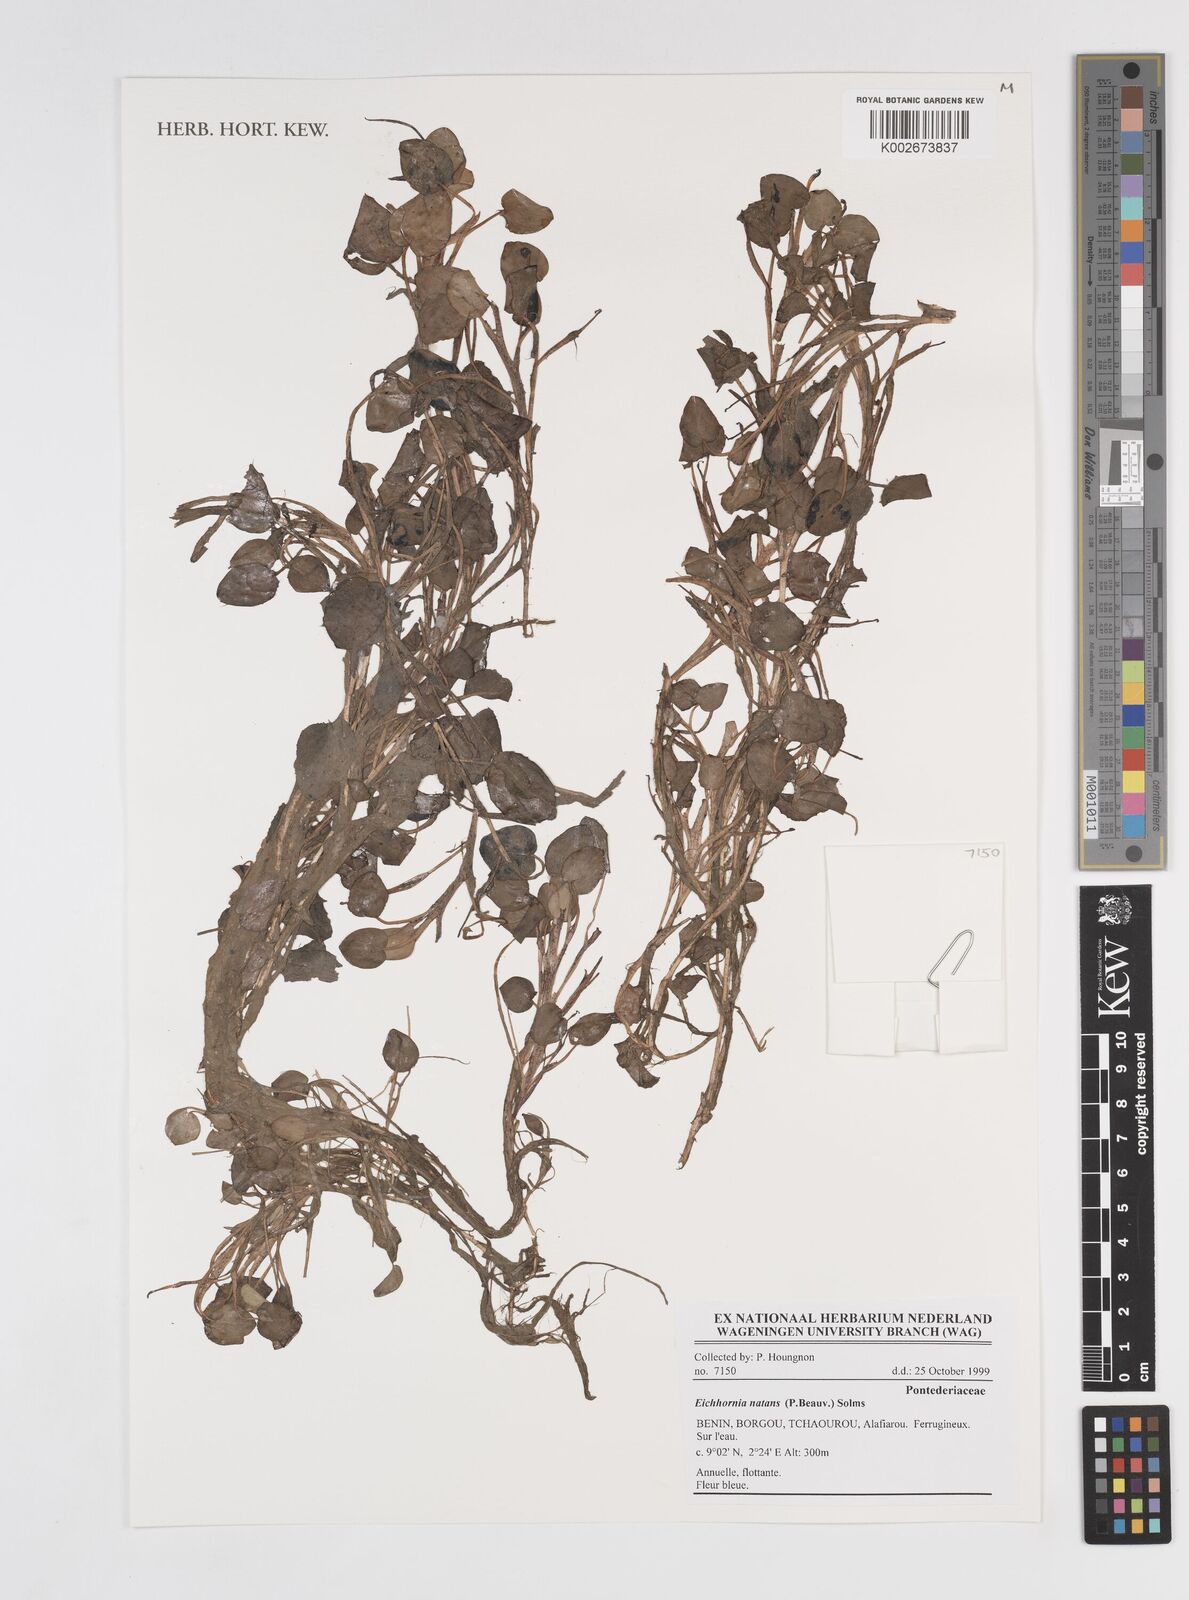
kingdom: Plantae
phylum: Tracheophyta
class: Liliopsida
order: Commelinales
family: Pontederiaceae
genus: Pontederia
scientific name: Pontederia natans
